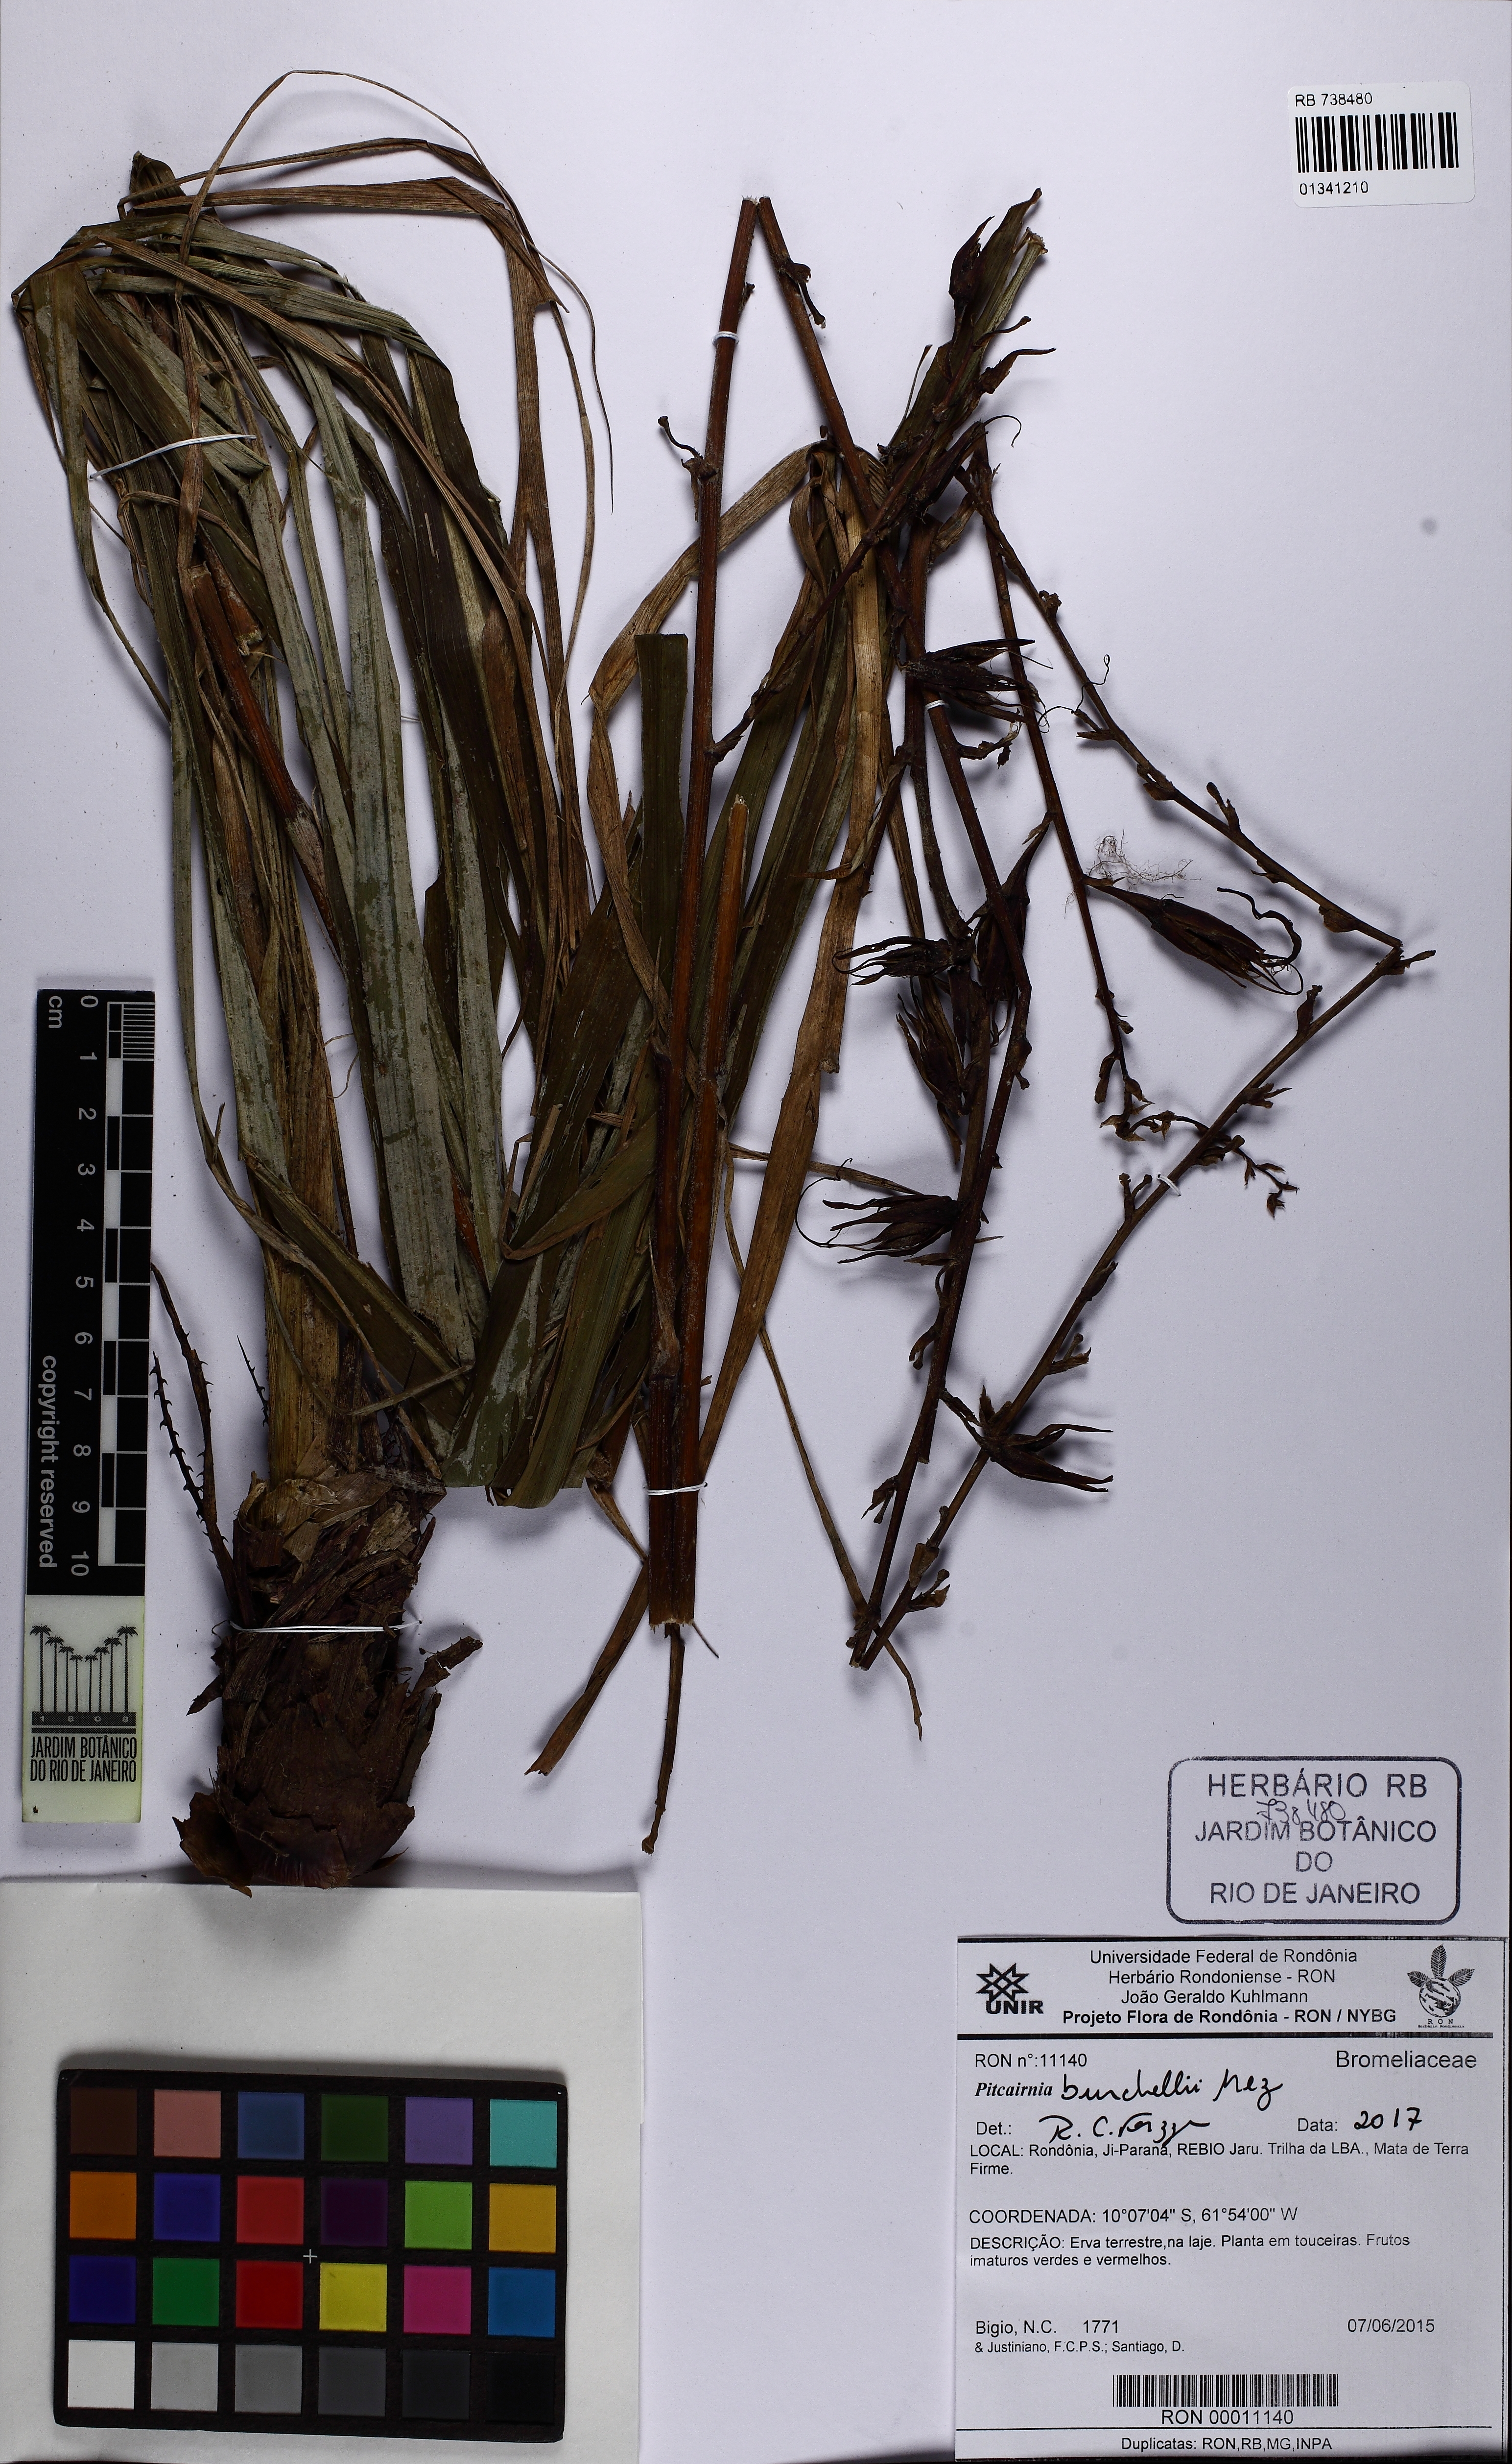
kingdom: Plantae
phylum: Tracheophyta
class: Liliopsida
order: Poales
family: Bromeliaceae
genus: Pitcairnia
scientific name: Pitcairnia lanuginosa
